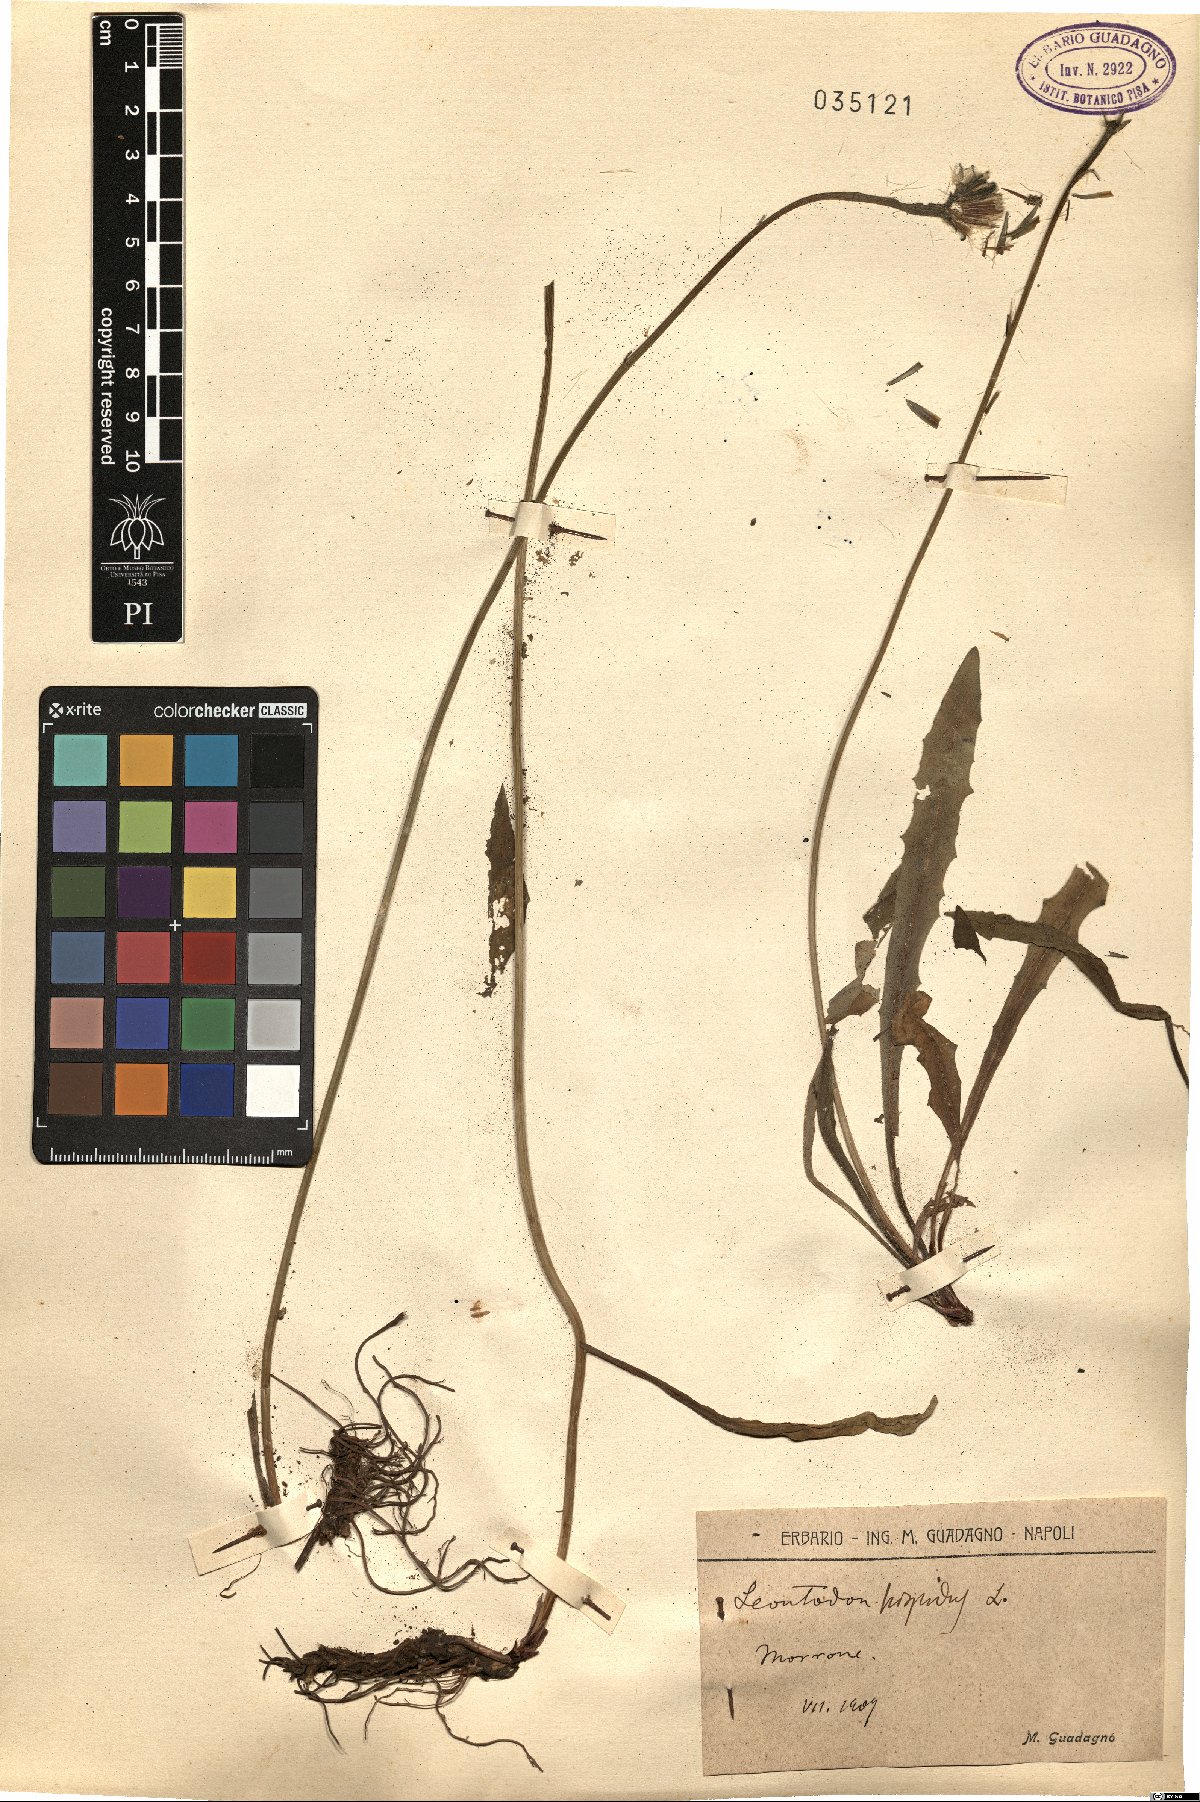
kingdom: Plantae
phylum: Tracheophyta
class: Magnoliopsida
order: Asterales
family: Asteraceae
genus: Leontodon
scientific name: Leontodon hispidus
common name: Rough hawkbit
